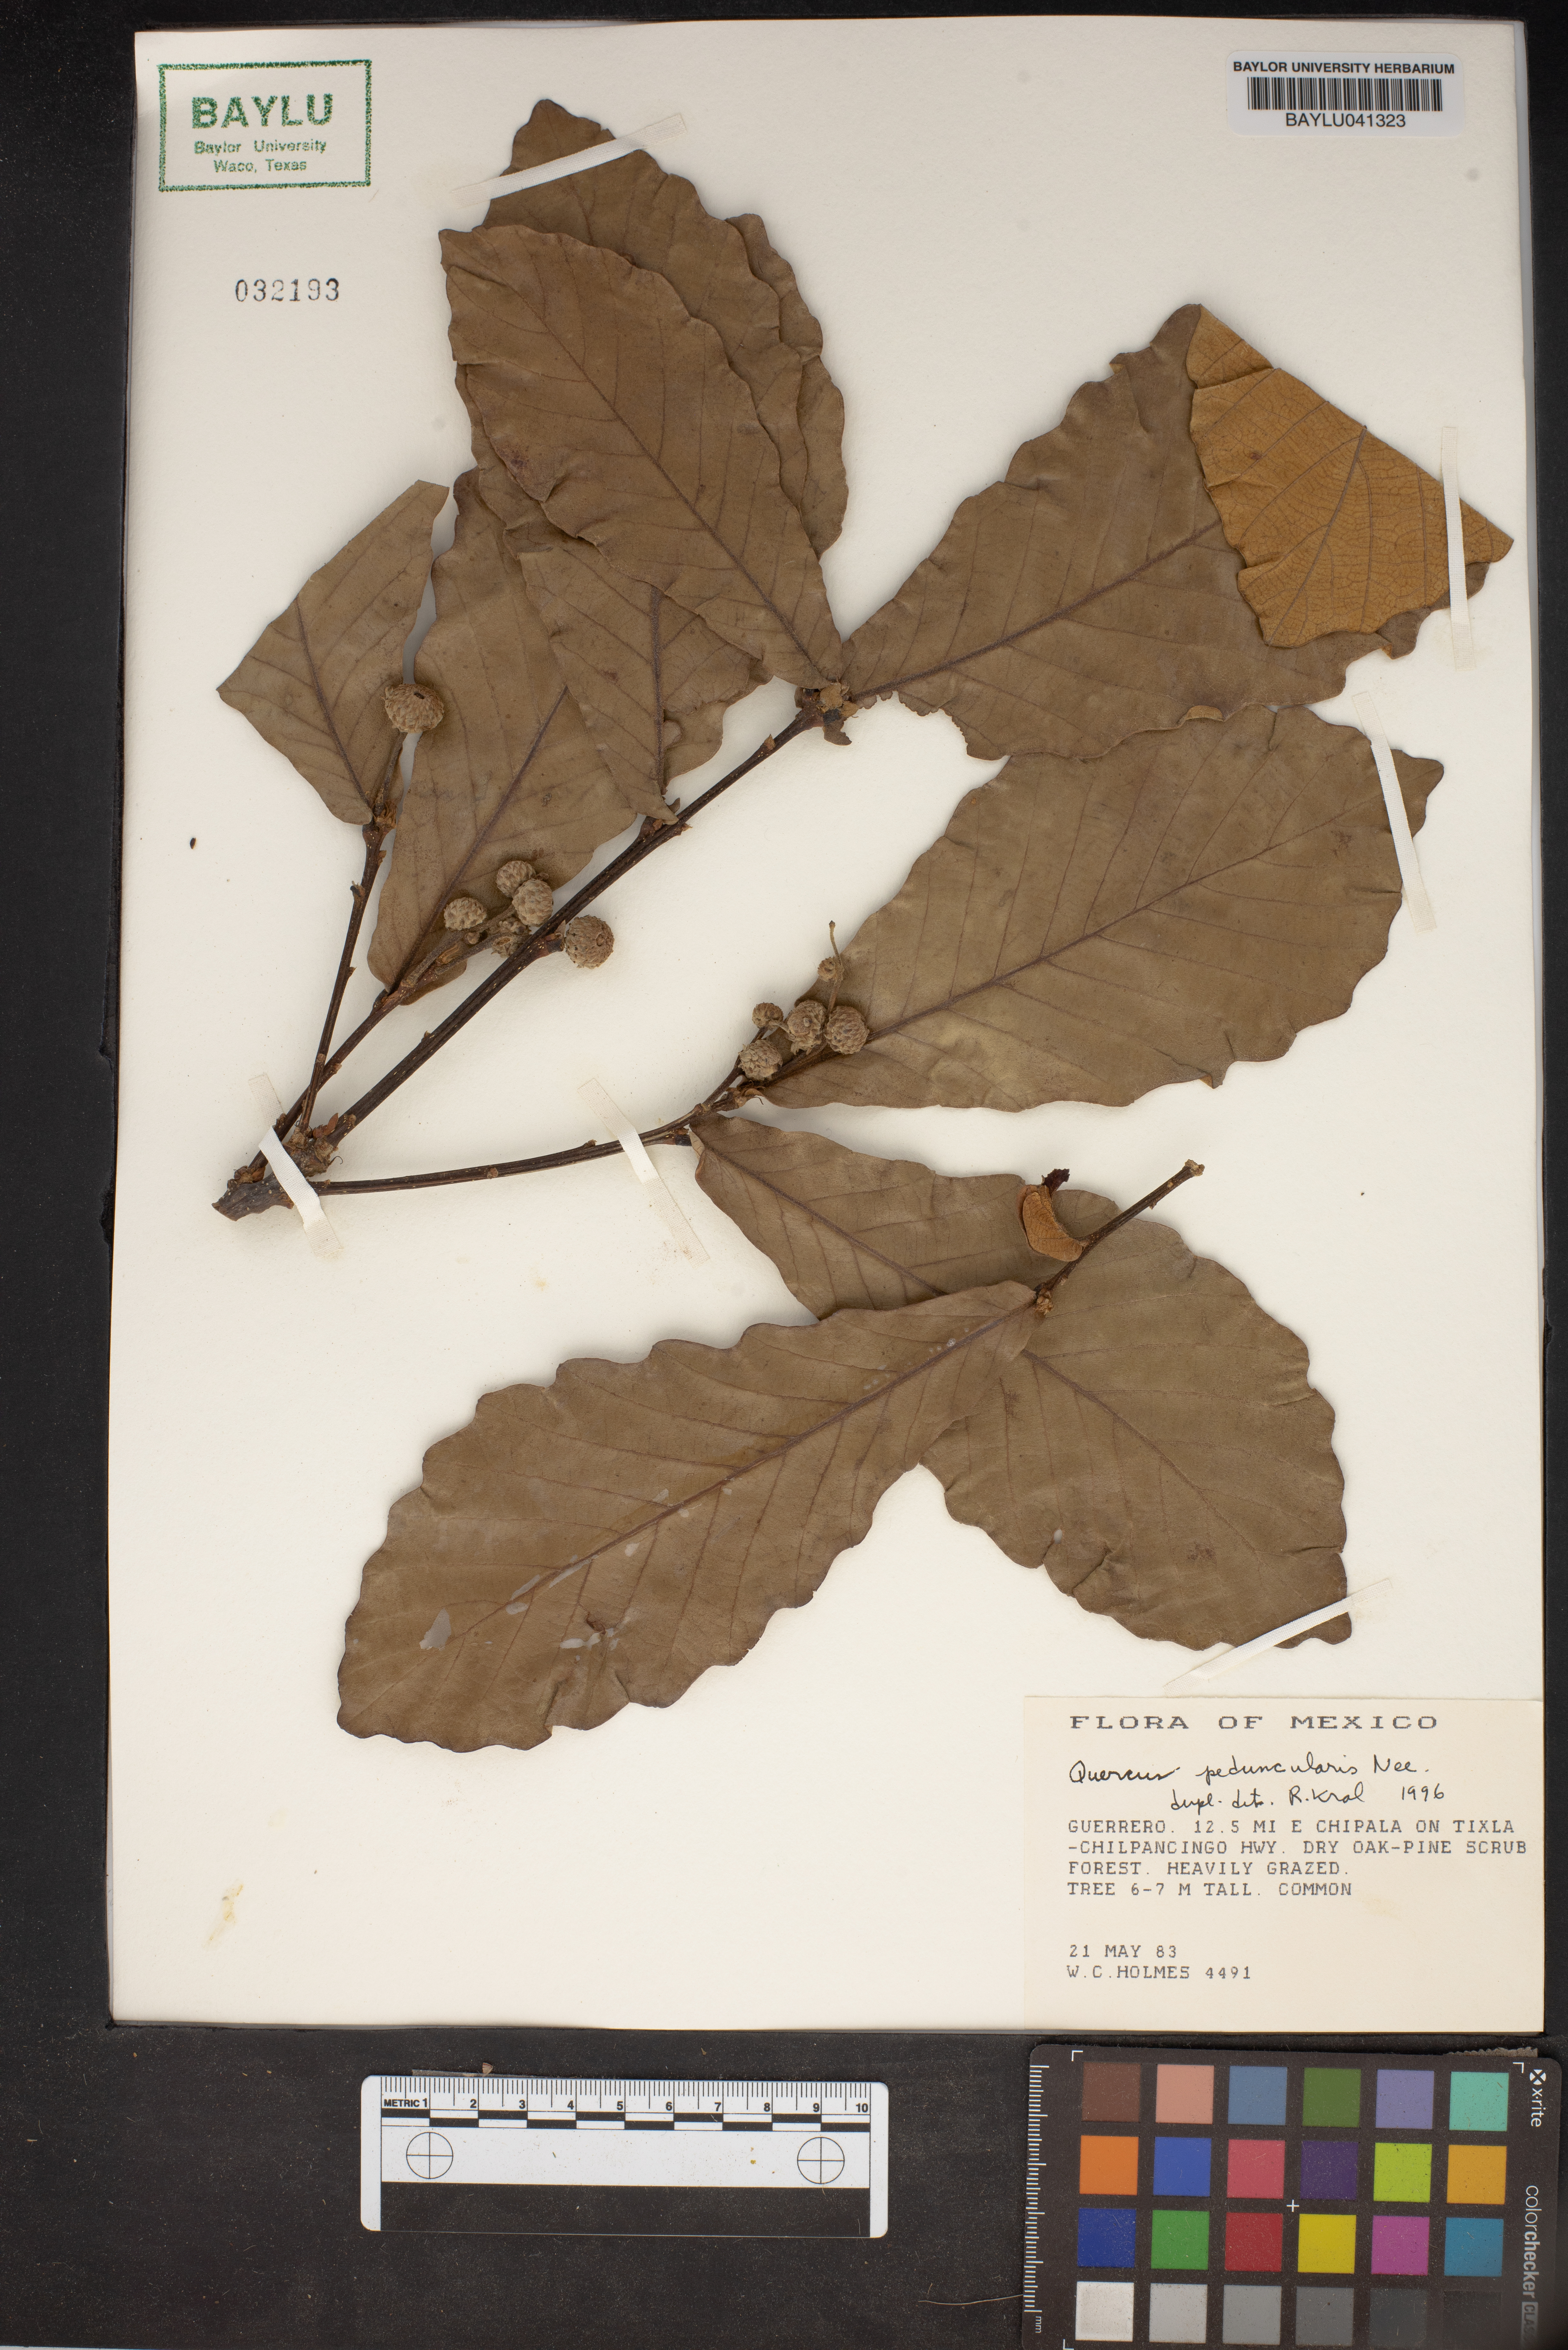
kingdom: Plantae
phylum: Tracheophyta
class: Magnoliopsida
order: Fagales
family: Fagaceae
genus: Quercus
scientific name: Quercus peduncularis
